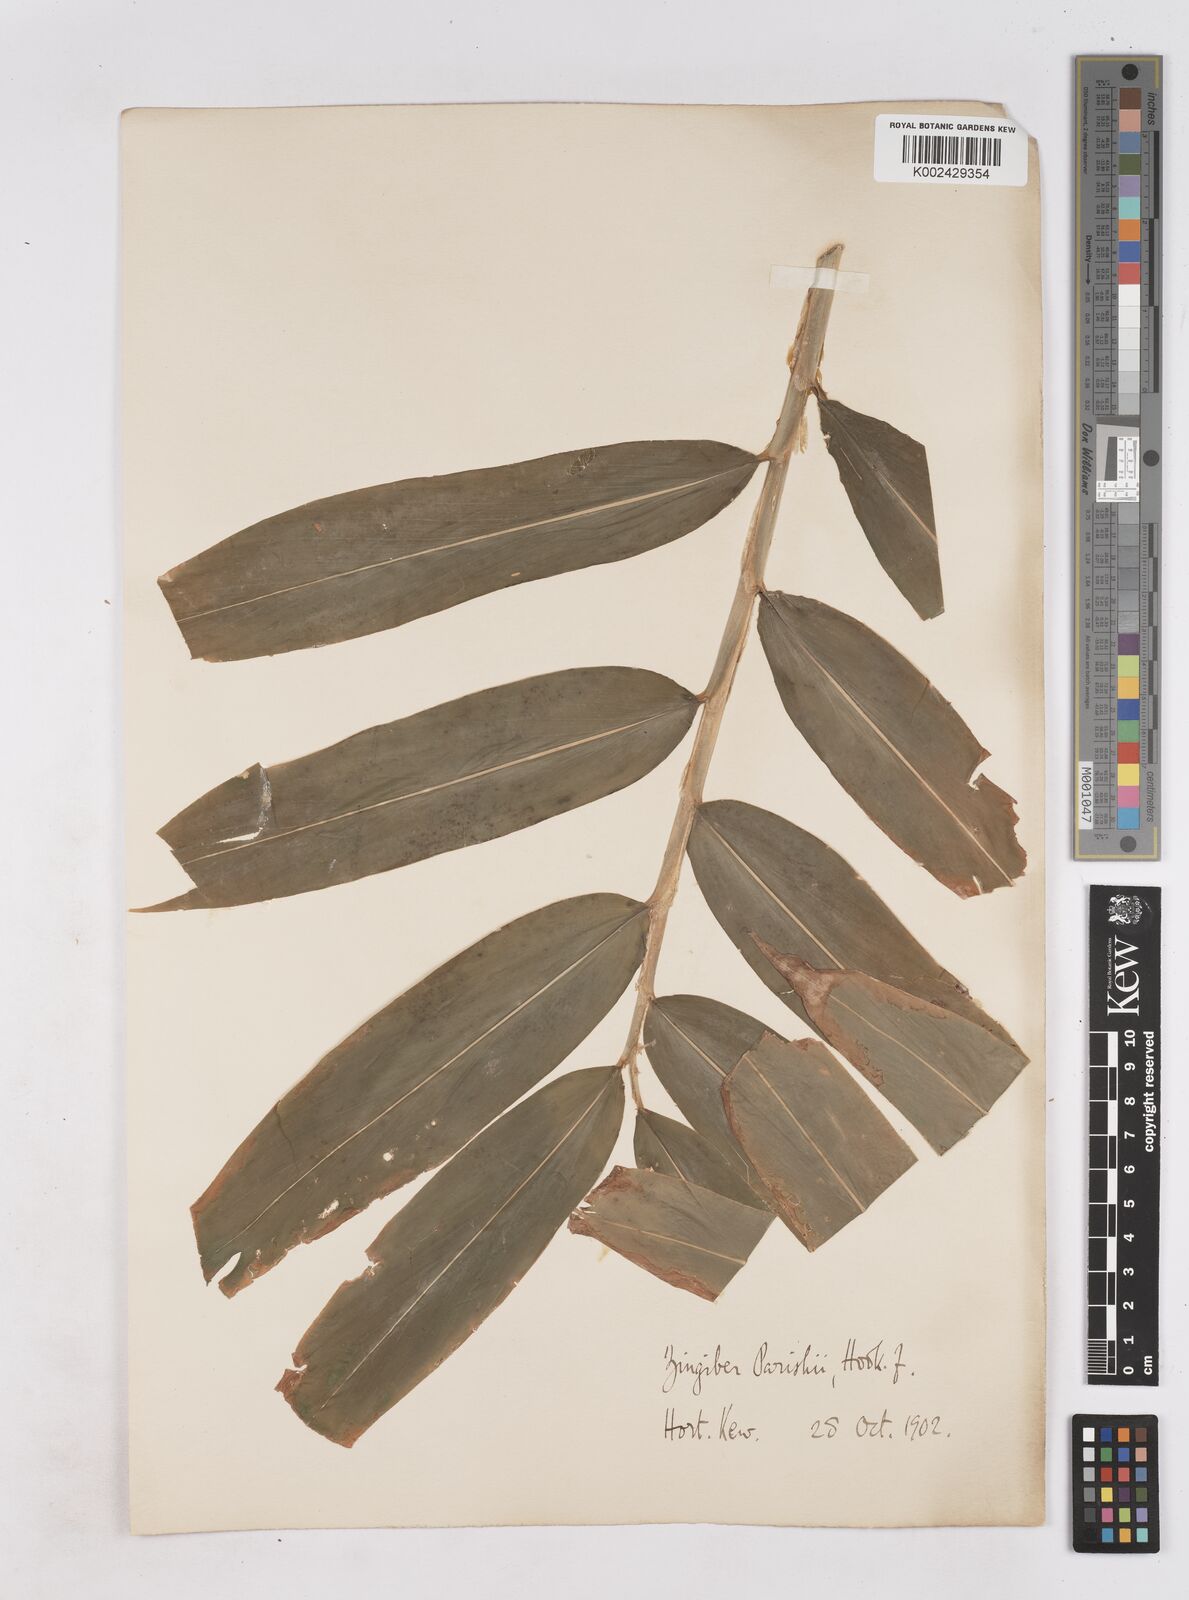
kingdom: Plantae
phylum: Tracheophyta
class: Liliopsida
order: Zingiberales
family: Zingiberaceae
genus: Zingiber
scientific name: Zingiber spectabile
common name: Beehive ginger
